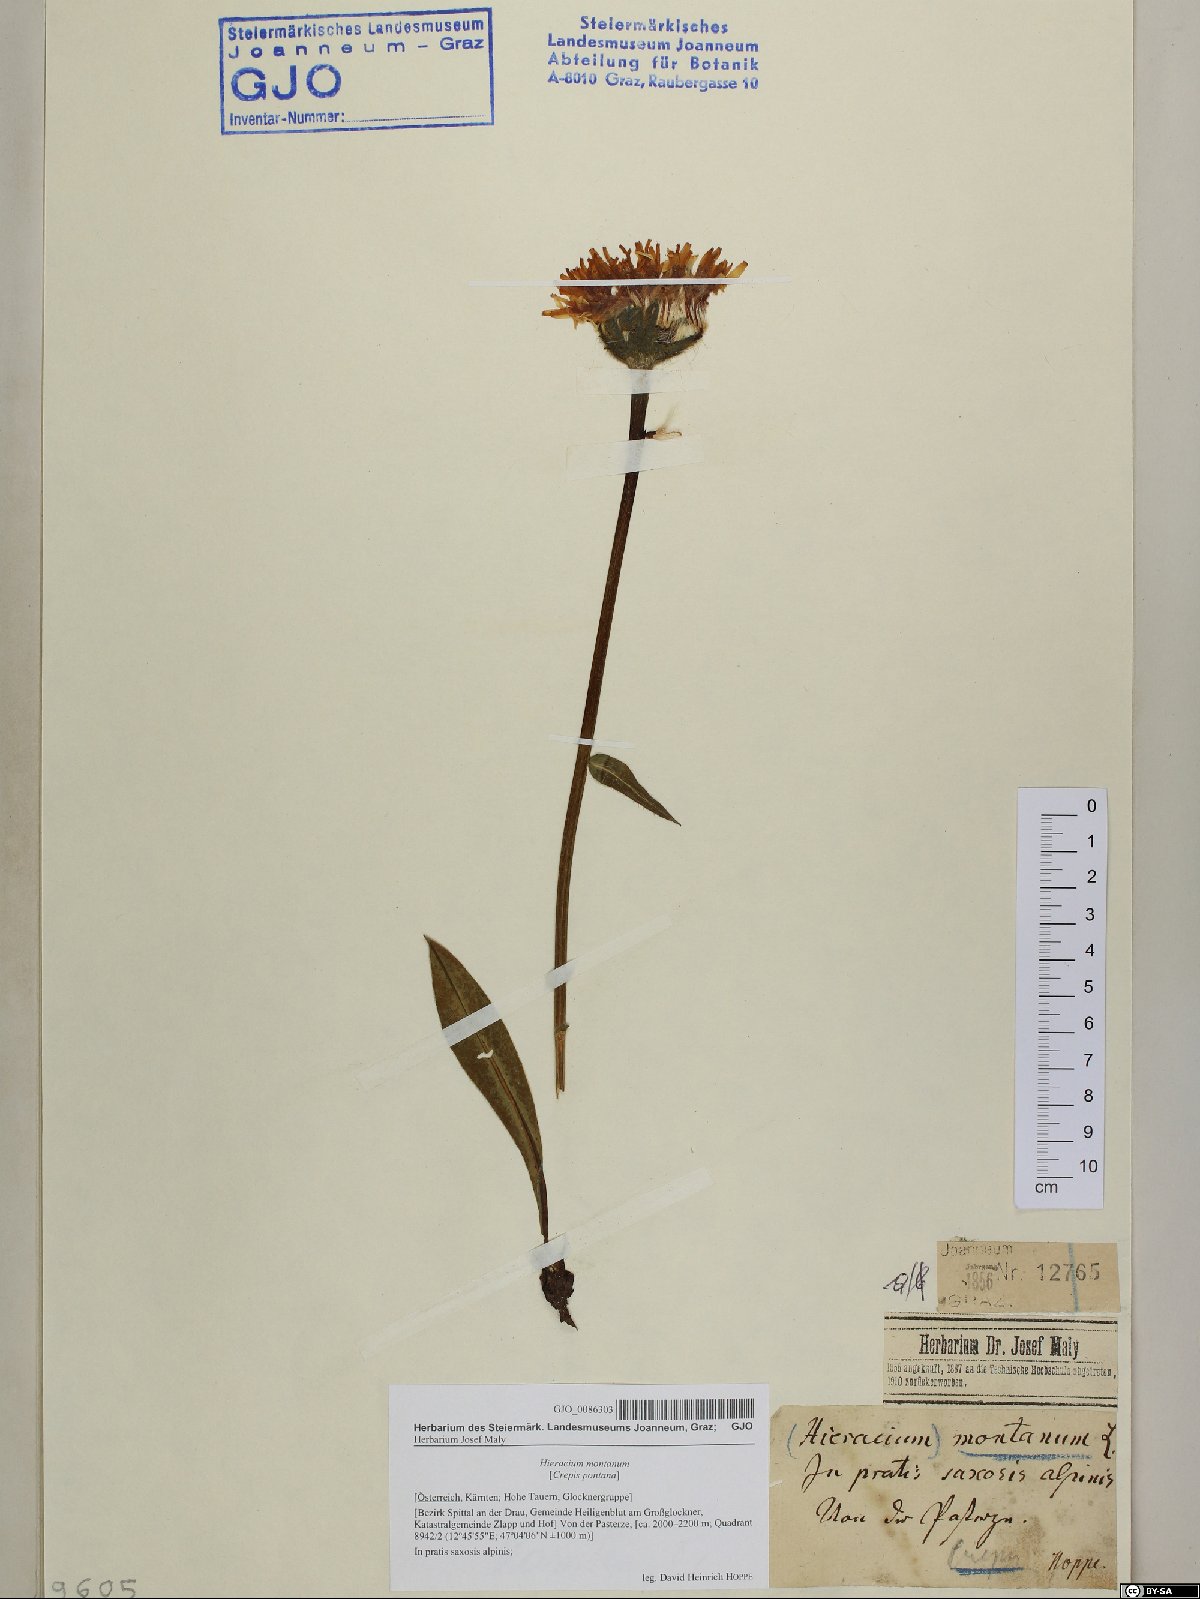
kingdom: Plantae
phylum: Tracheophyta
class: Magnoliopsida
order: Asterales
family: Asteraceae
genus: Crepis
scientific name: Crepis pontana
